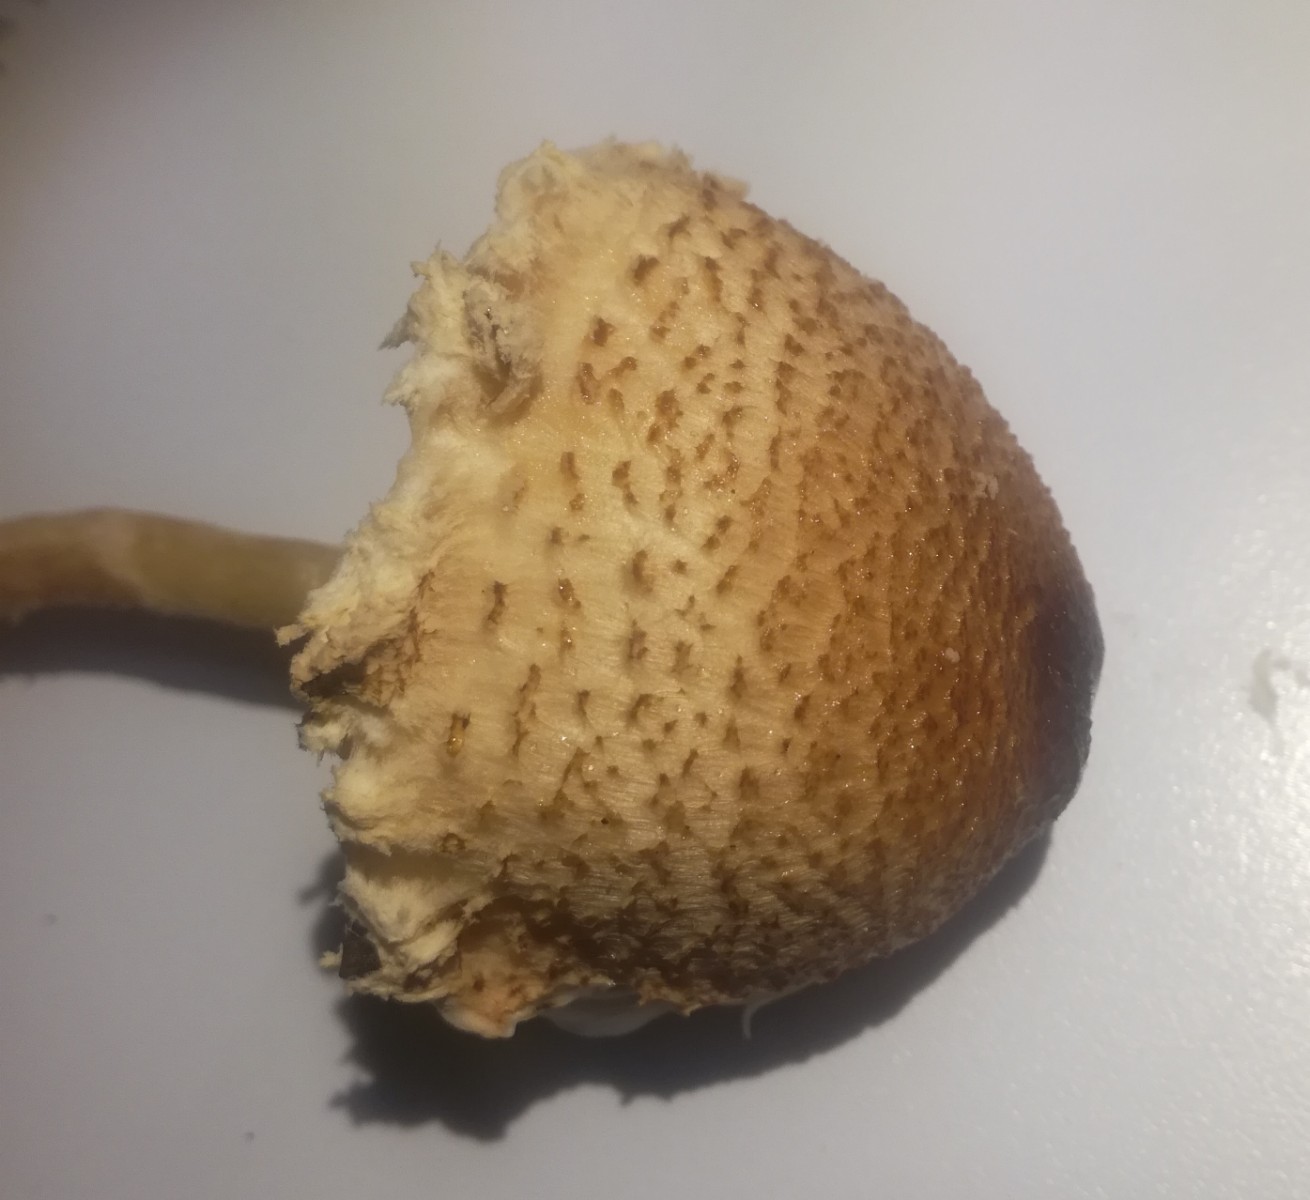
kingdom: Fungi
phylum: Basidiomycota
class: Agaricomycetes
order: Agaricales
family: Agaricaceae
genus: Lepiota
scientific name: Lepiota magnispora
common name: gulfnugget parasolhat
